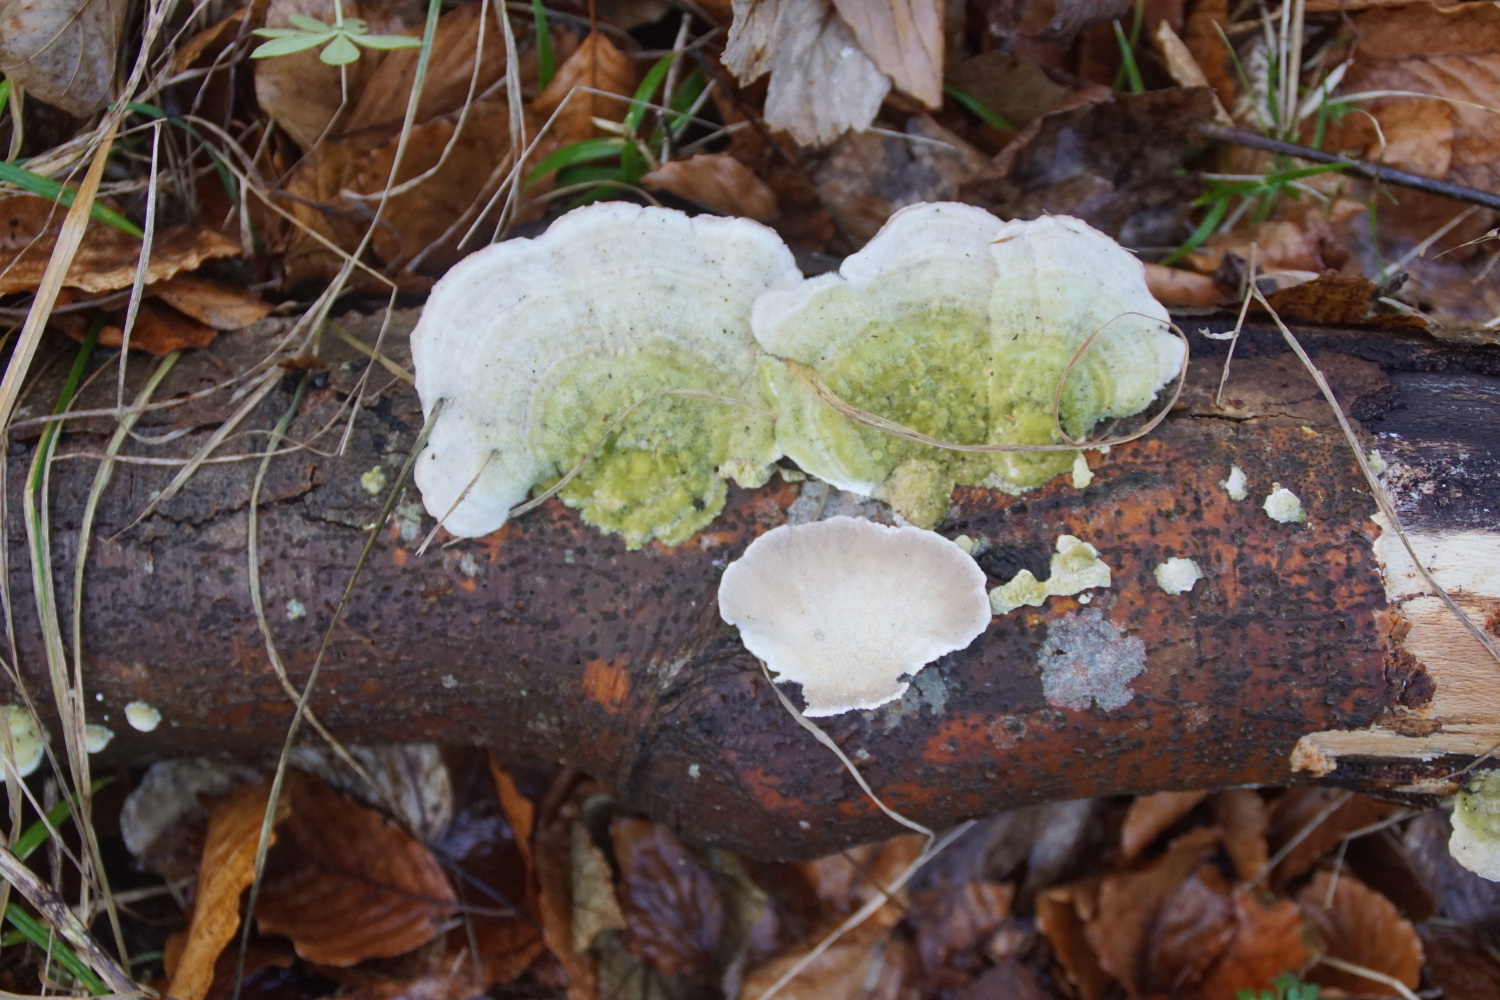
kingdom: Fungi
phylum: Basidiomycota
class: Agaricomycetes
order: Polyporales
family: Polyporaceae
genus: Trametes
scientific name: Trametes hirsuta
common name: håret læderporesvamp
